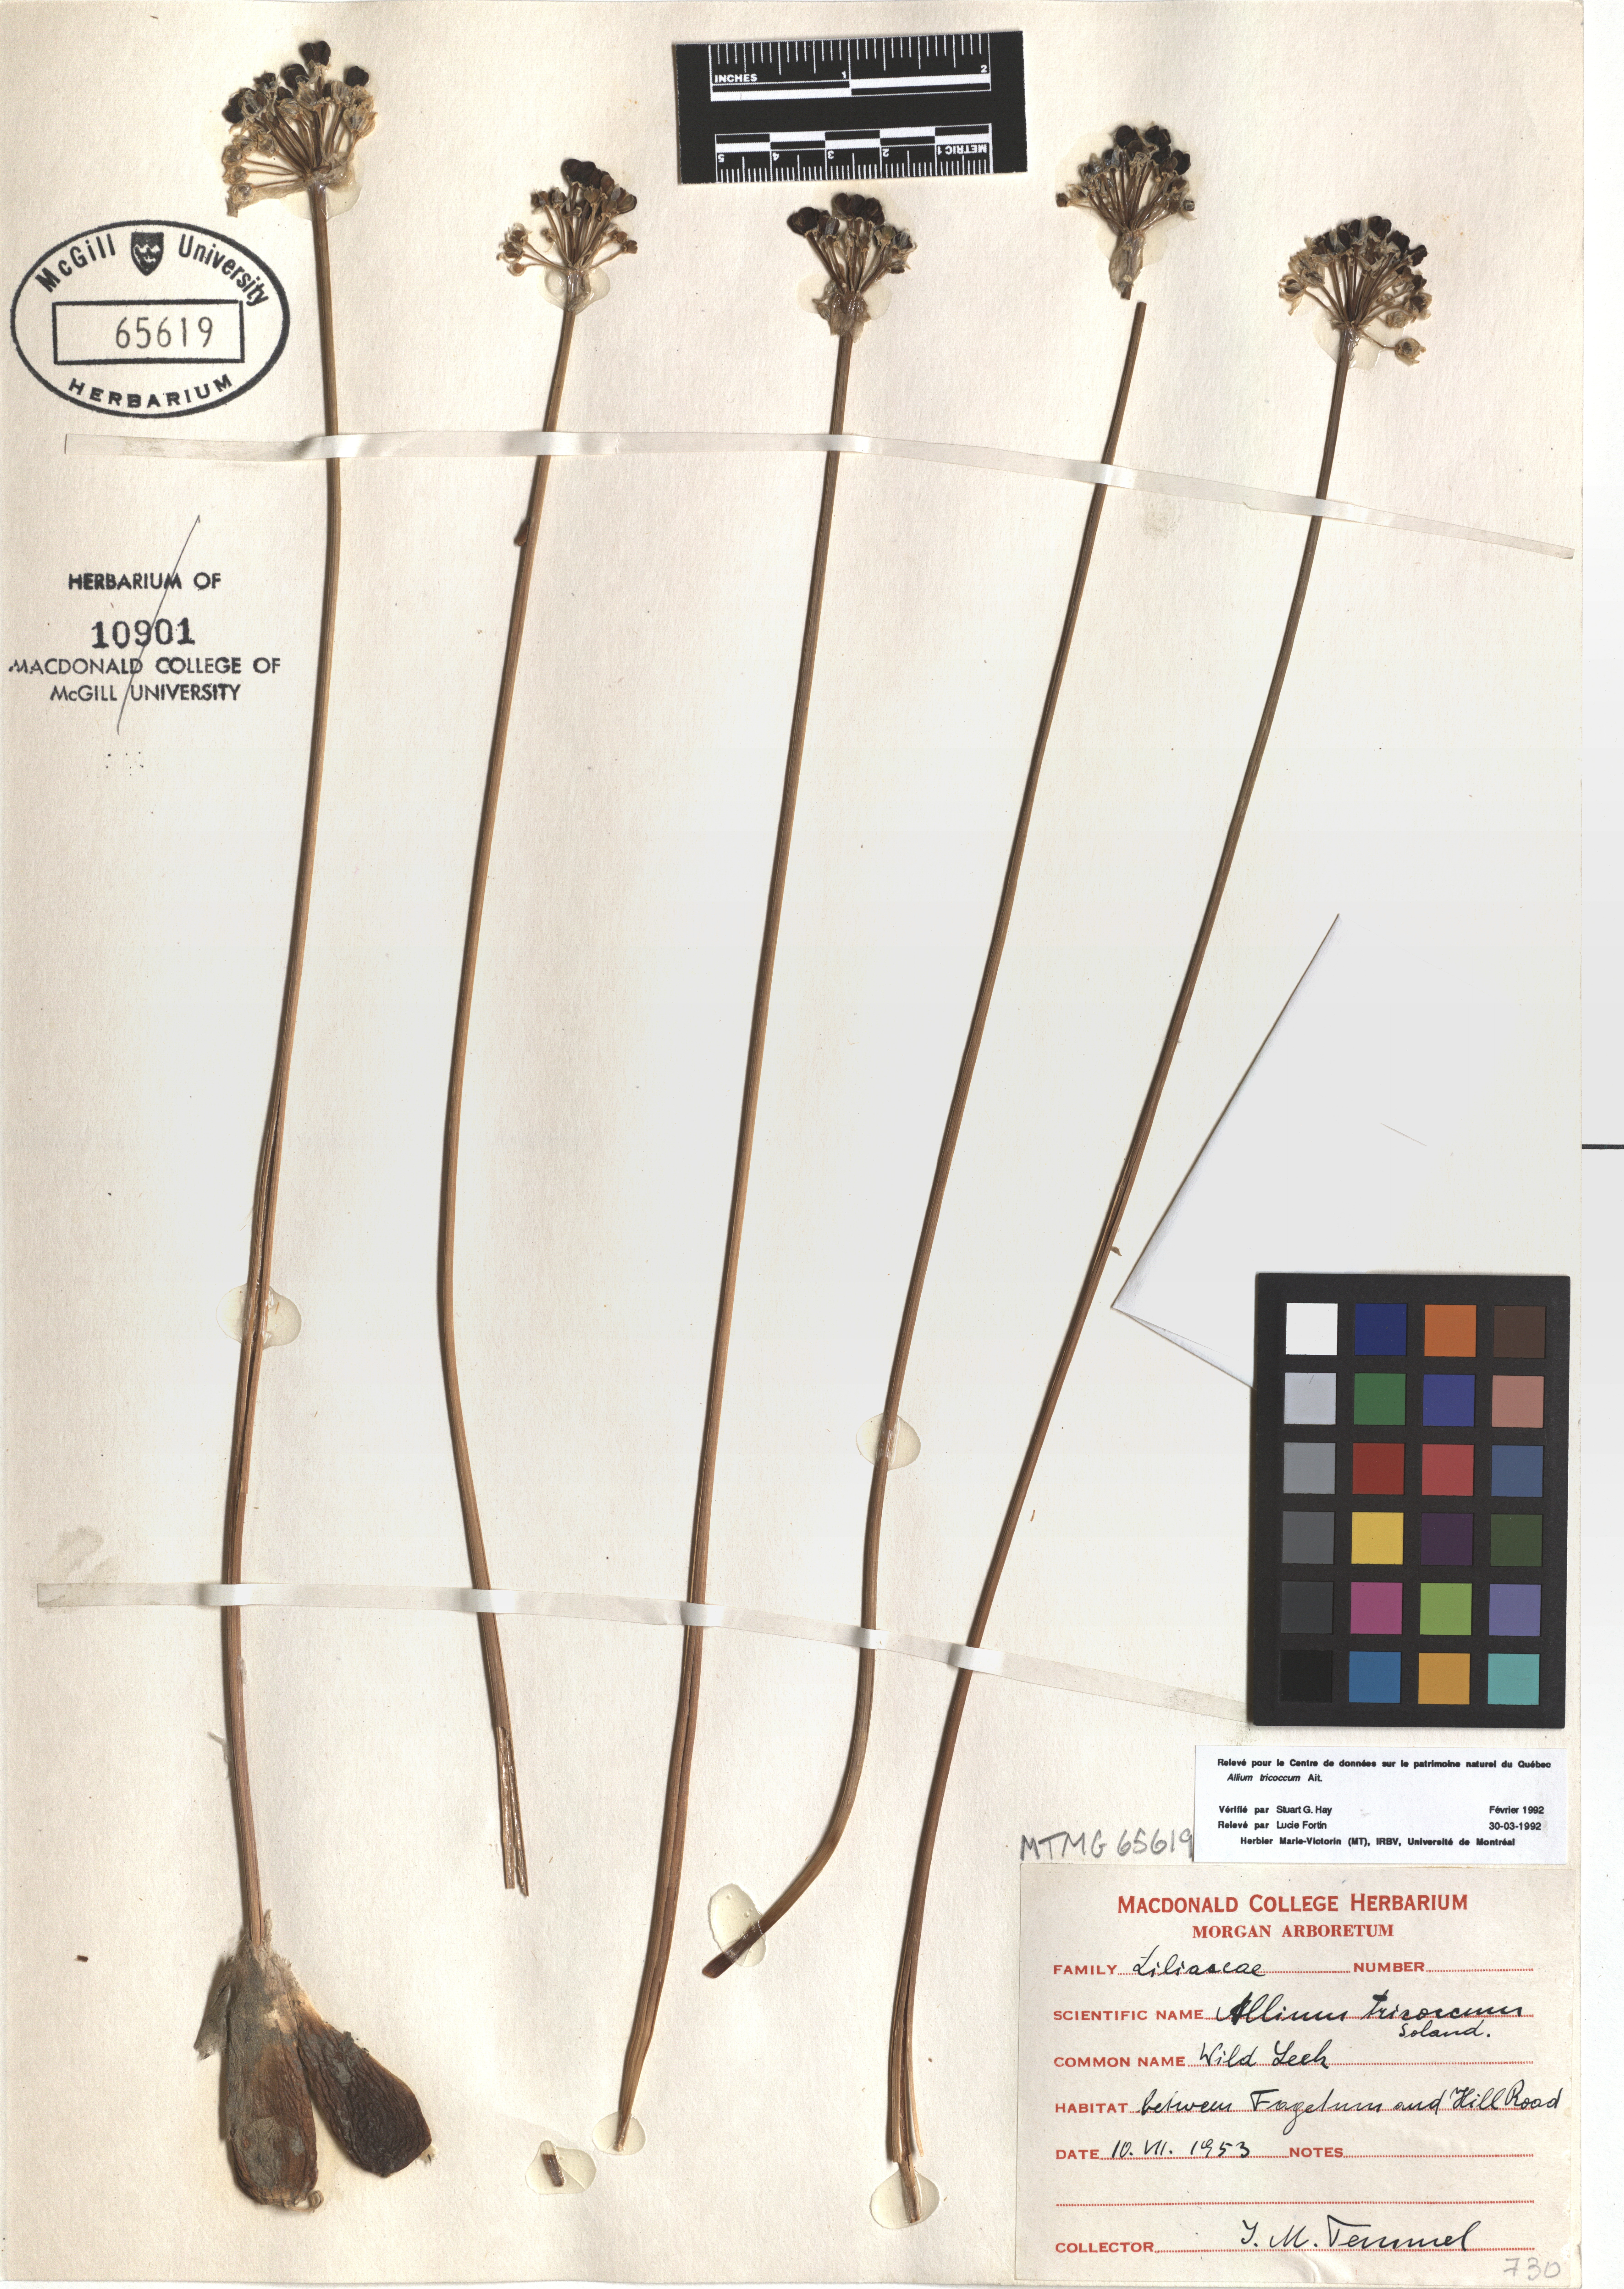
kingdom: Plantae
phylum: Tracheophyta
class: Liliopsida
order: Asparagales
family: Amaryllidaceae
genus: Allium
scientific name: Allium tricoccum
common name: Ramp
